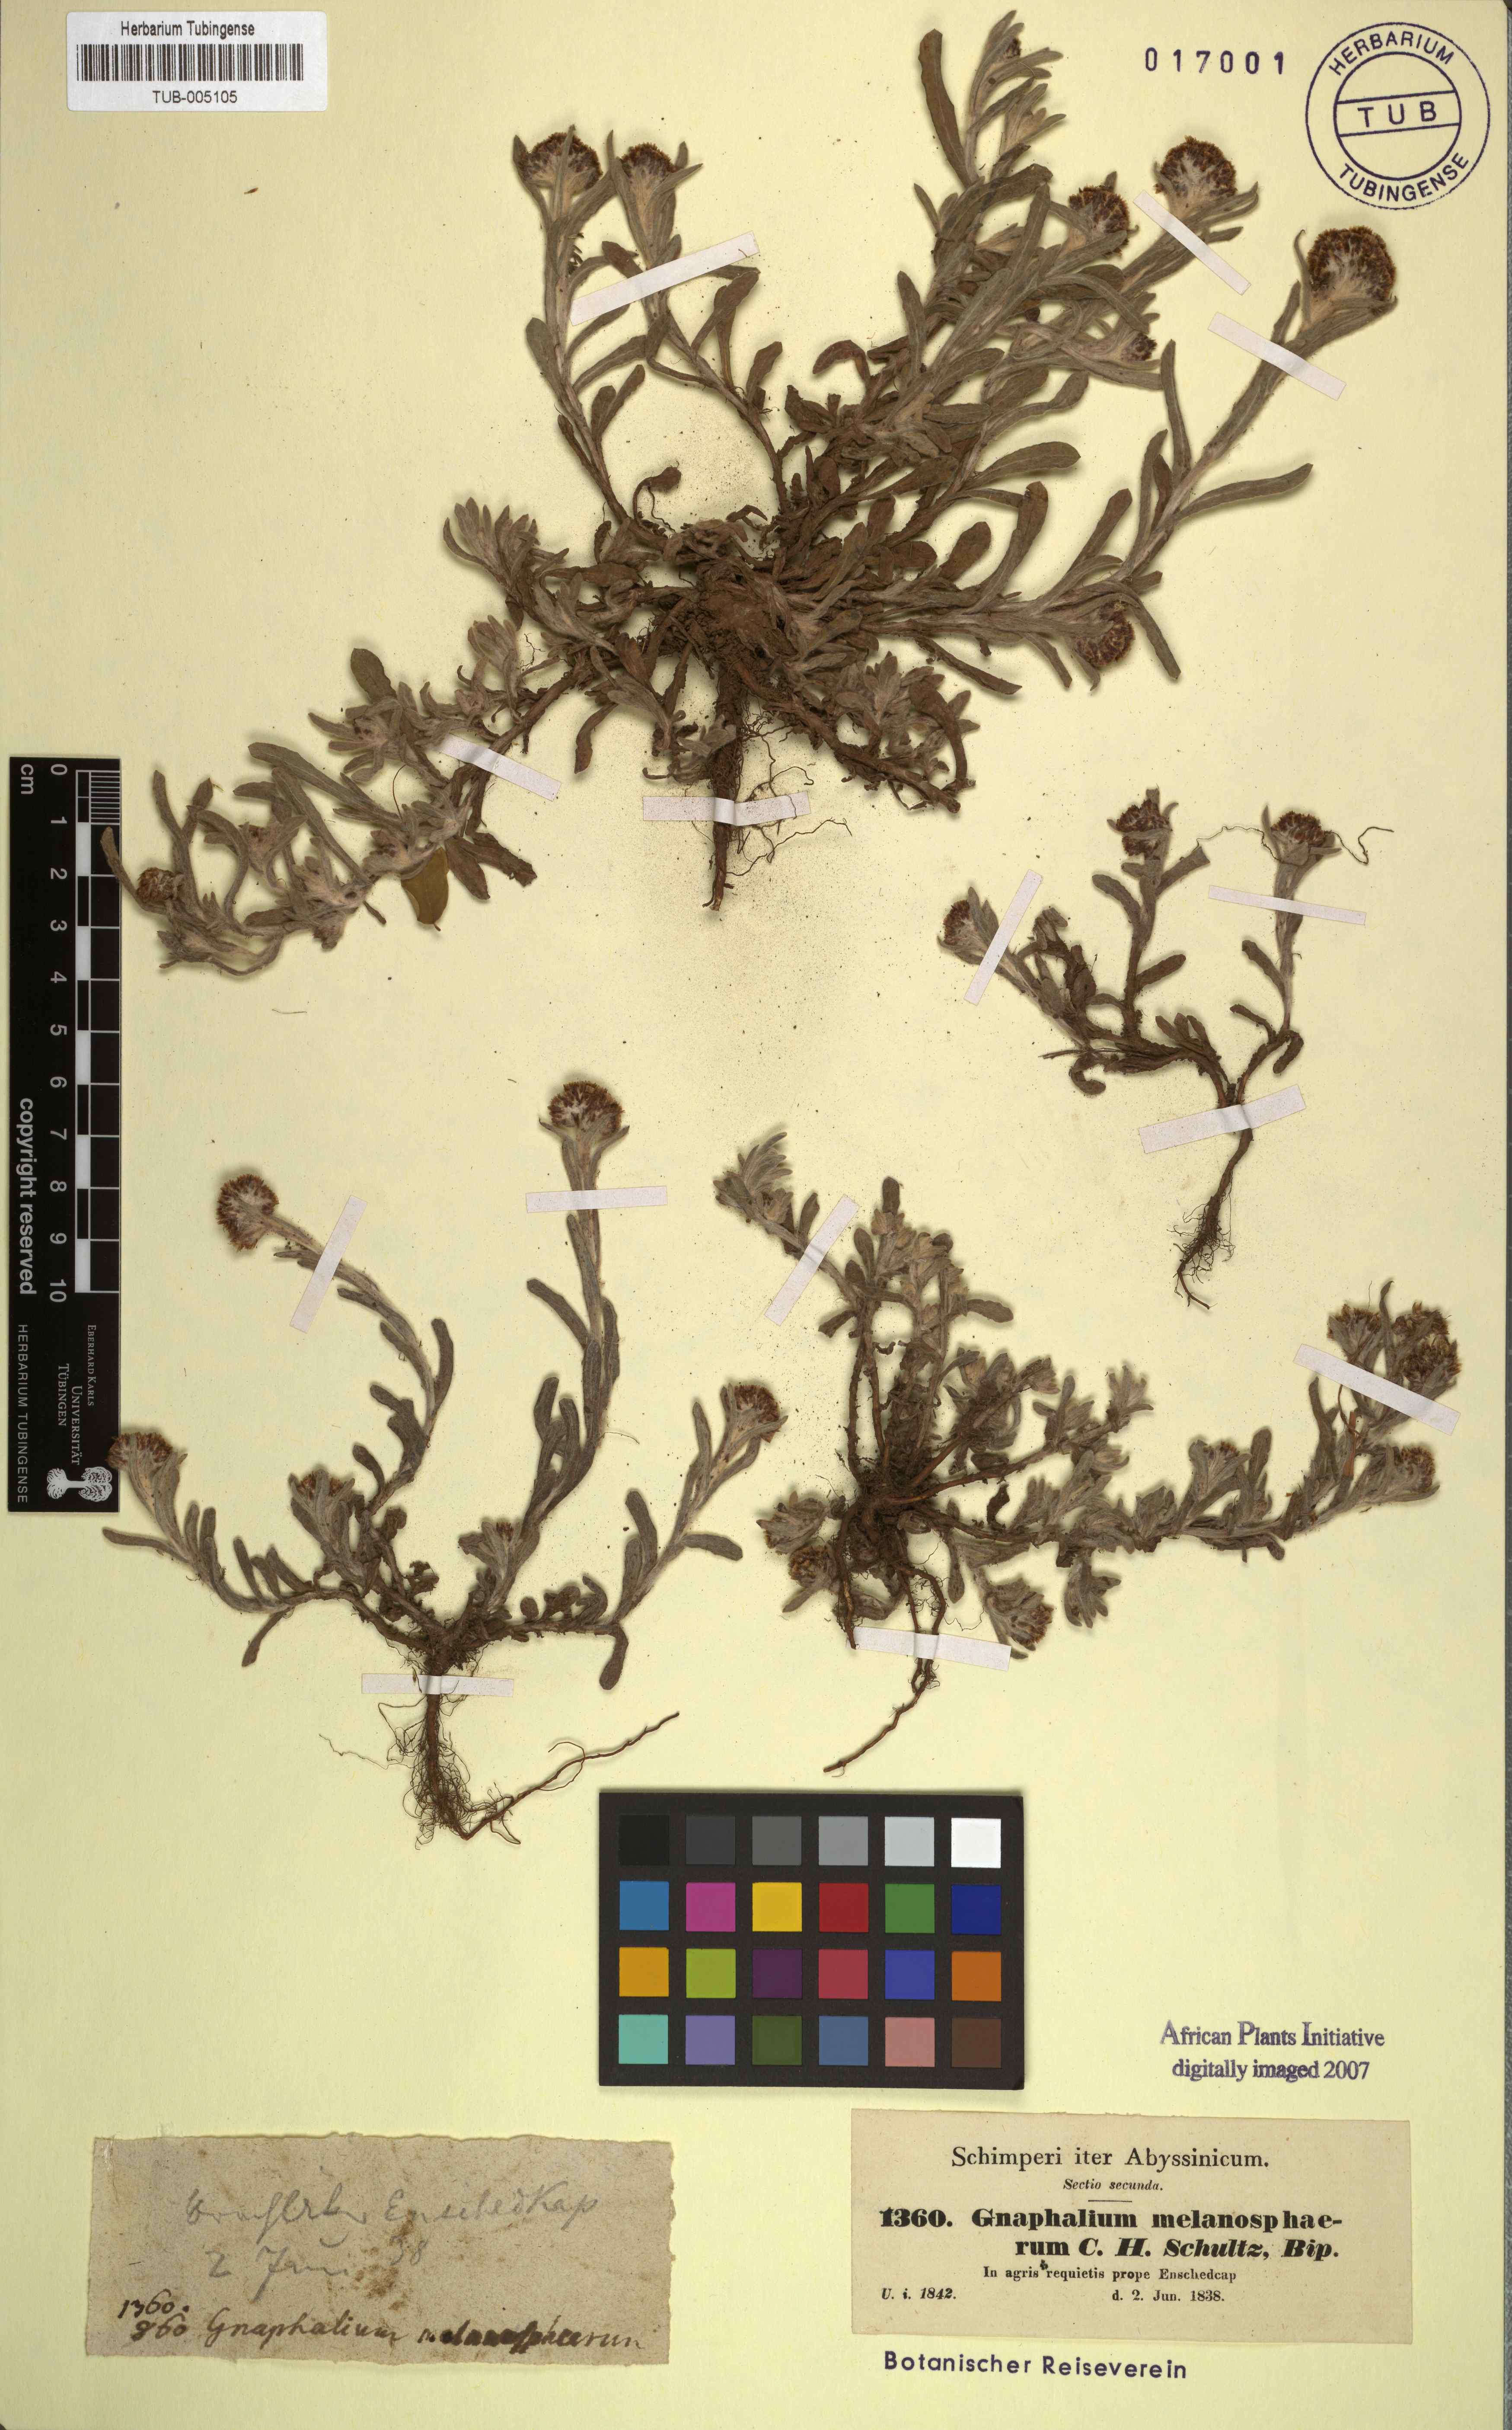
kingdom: Plantae
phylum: Tracheophyta
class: Magnoliopsida
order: Asterales
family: Asteraceae
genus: Pseudognaphalium
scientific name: Pseudognaphalium melanosphaerum
